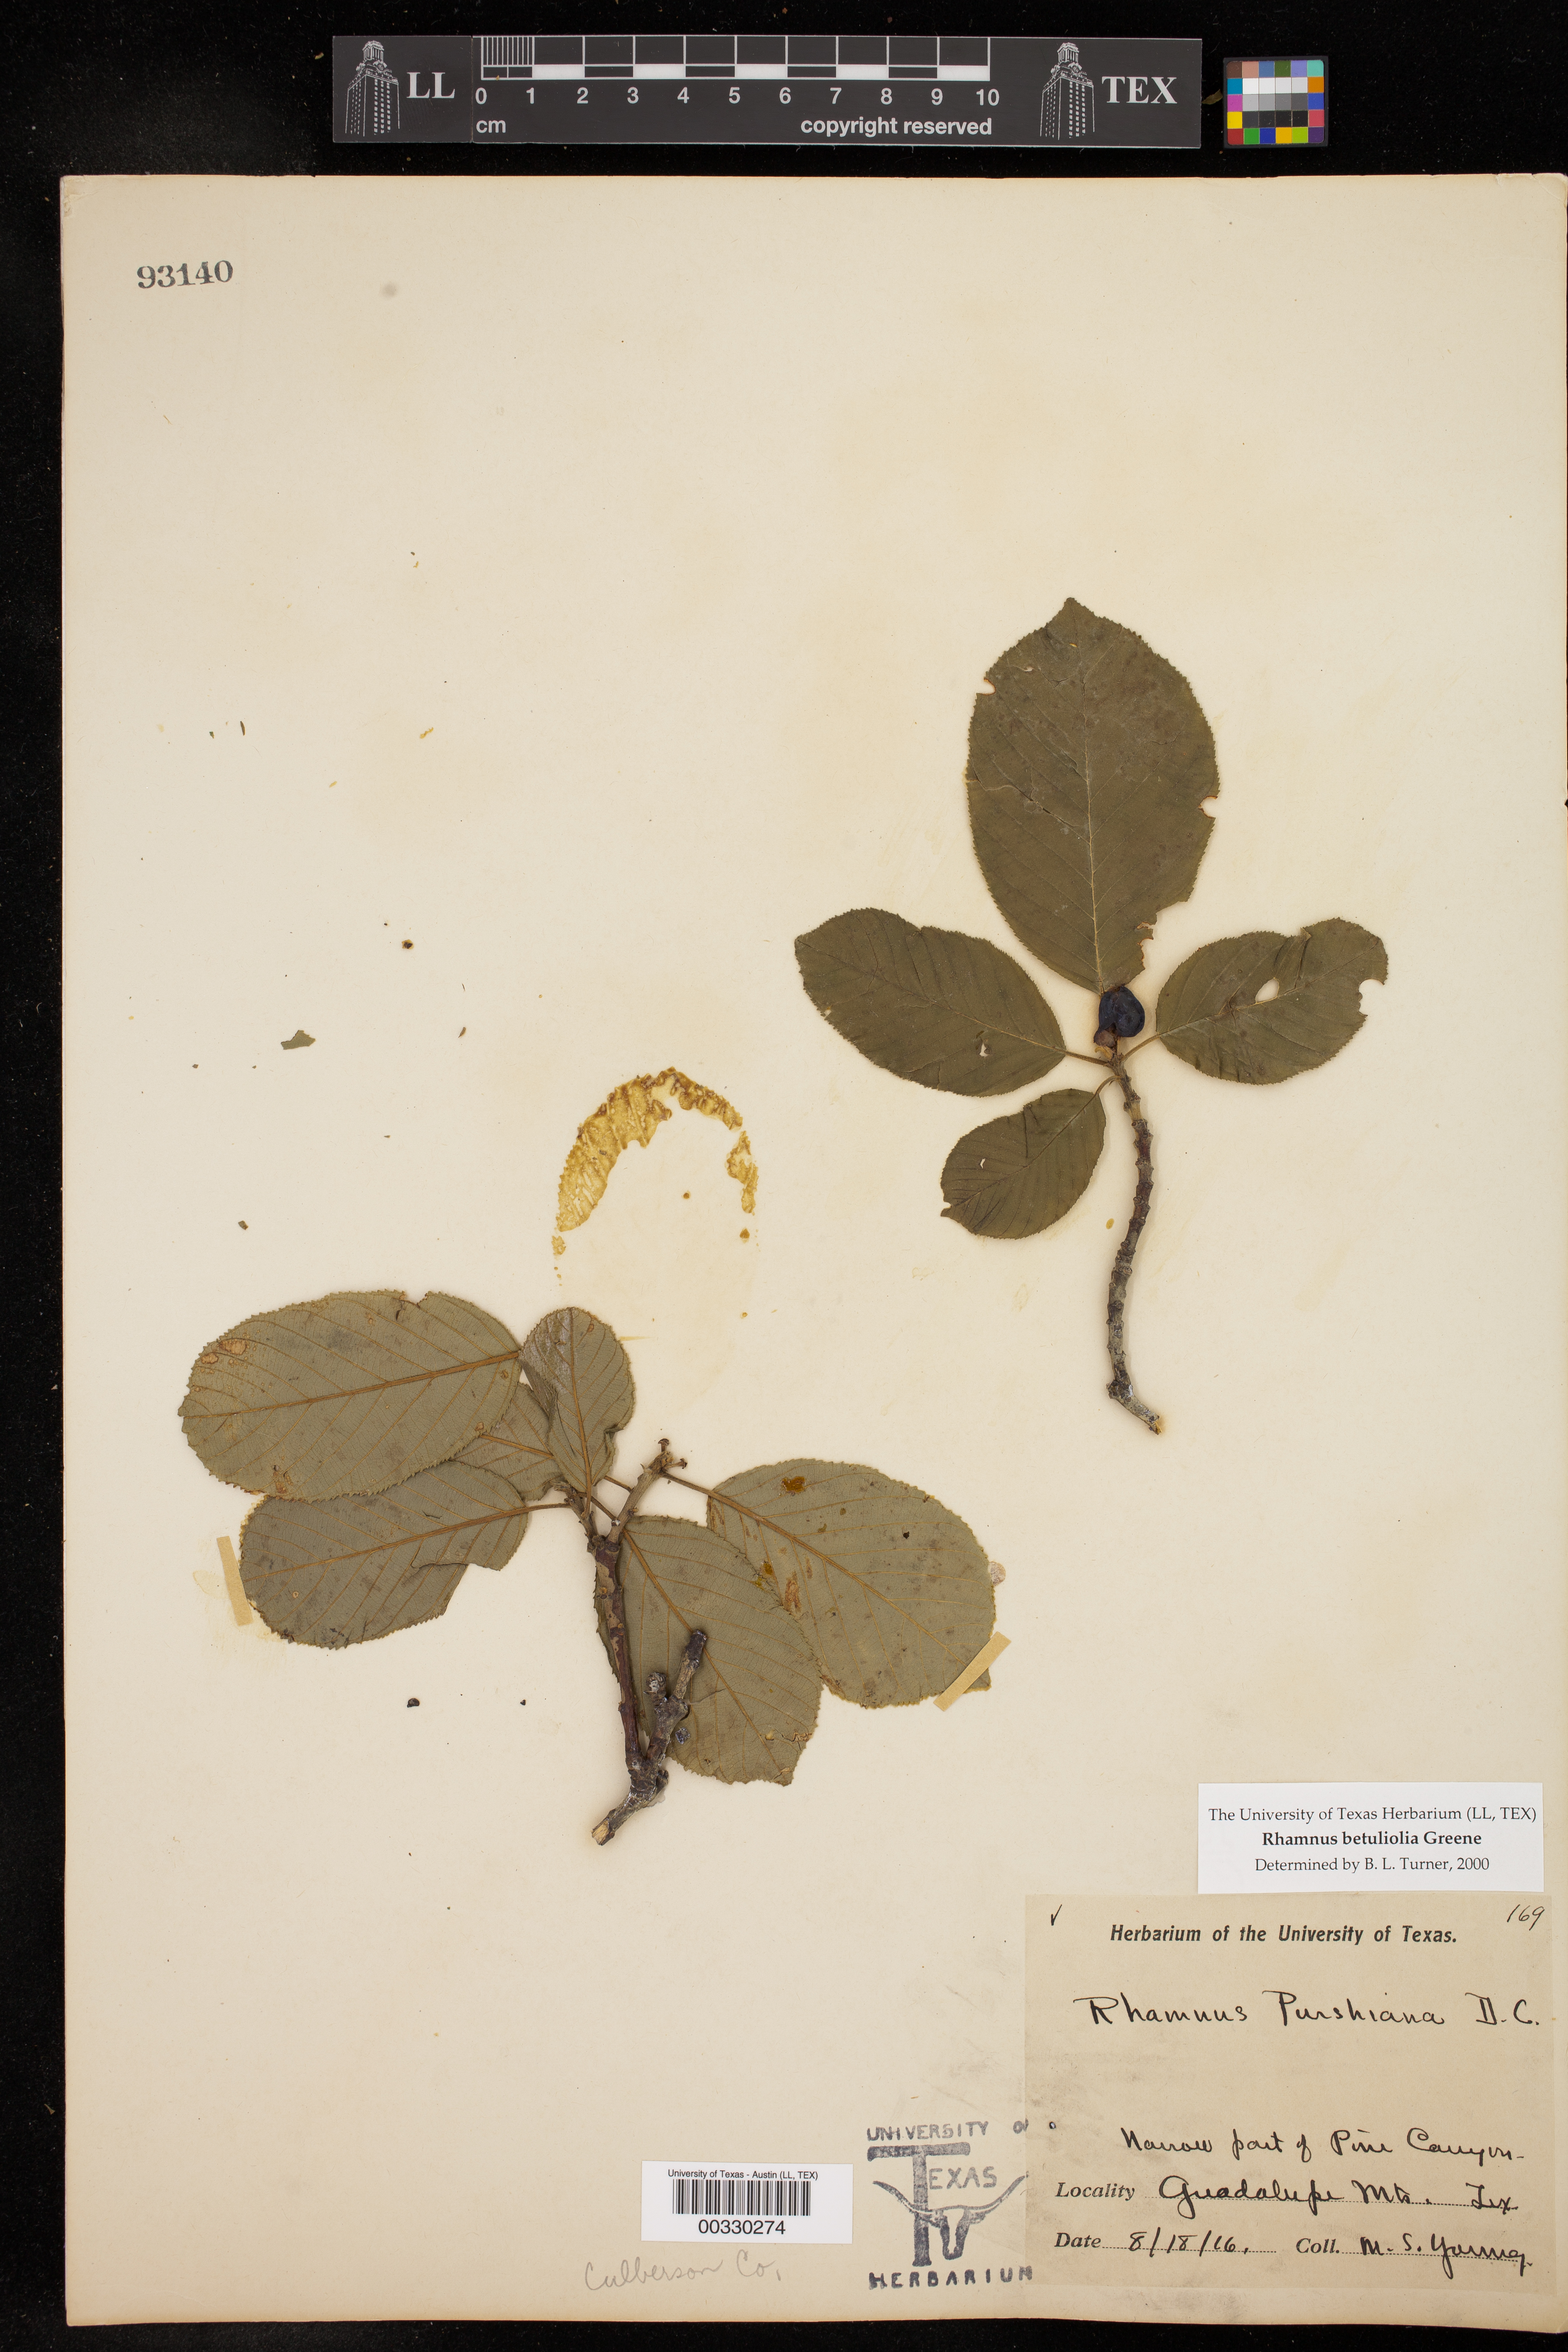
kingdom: Plantae
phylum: Tracheophyta
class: Magnoliopsida
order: Rosales
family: Rhamnaceae
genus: Frangula
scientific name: Frangula betulifolia
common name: Birch-leaf buckthorn
